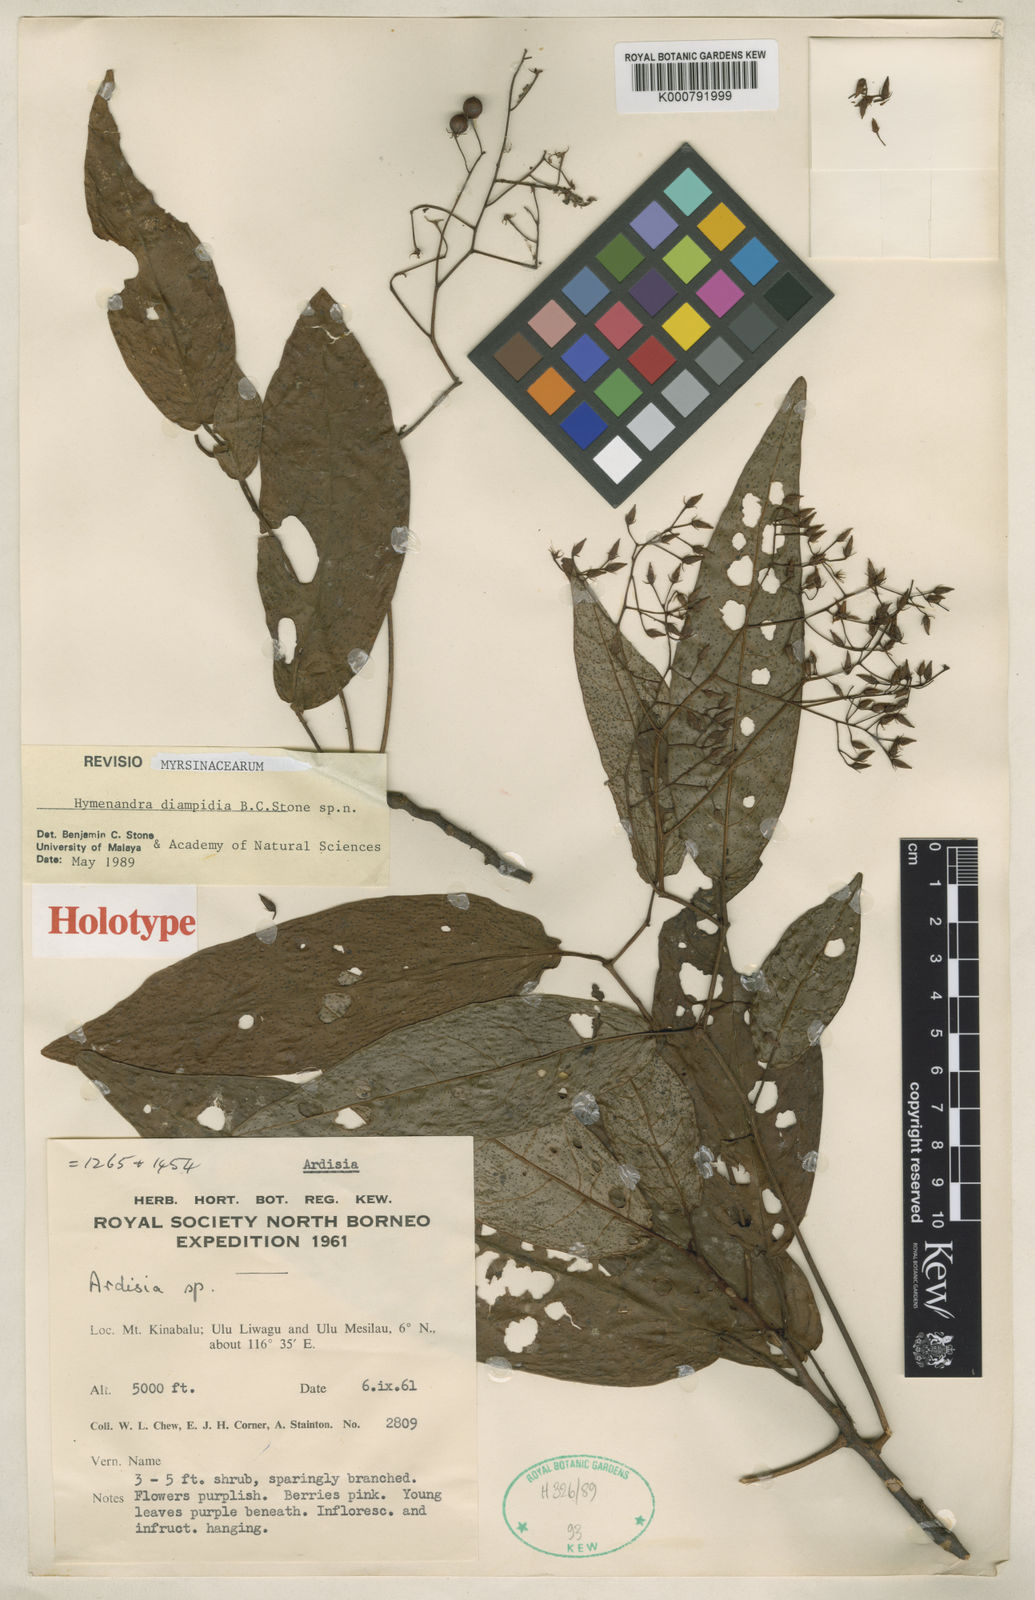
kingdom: Plantae
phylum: Tracheophyta
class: Magnoliopsida
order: Ericales
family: Primulaceae
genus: Hymenandra
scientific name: Hymenandra diamphidia
